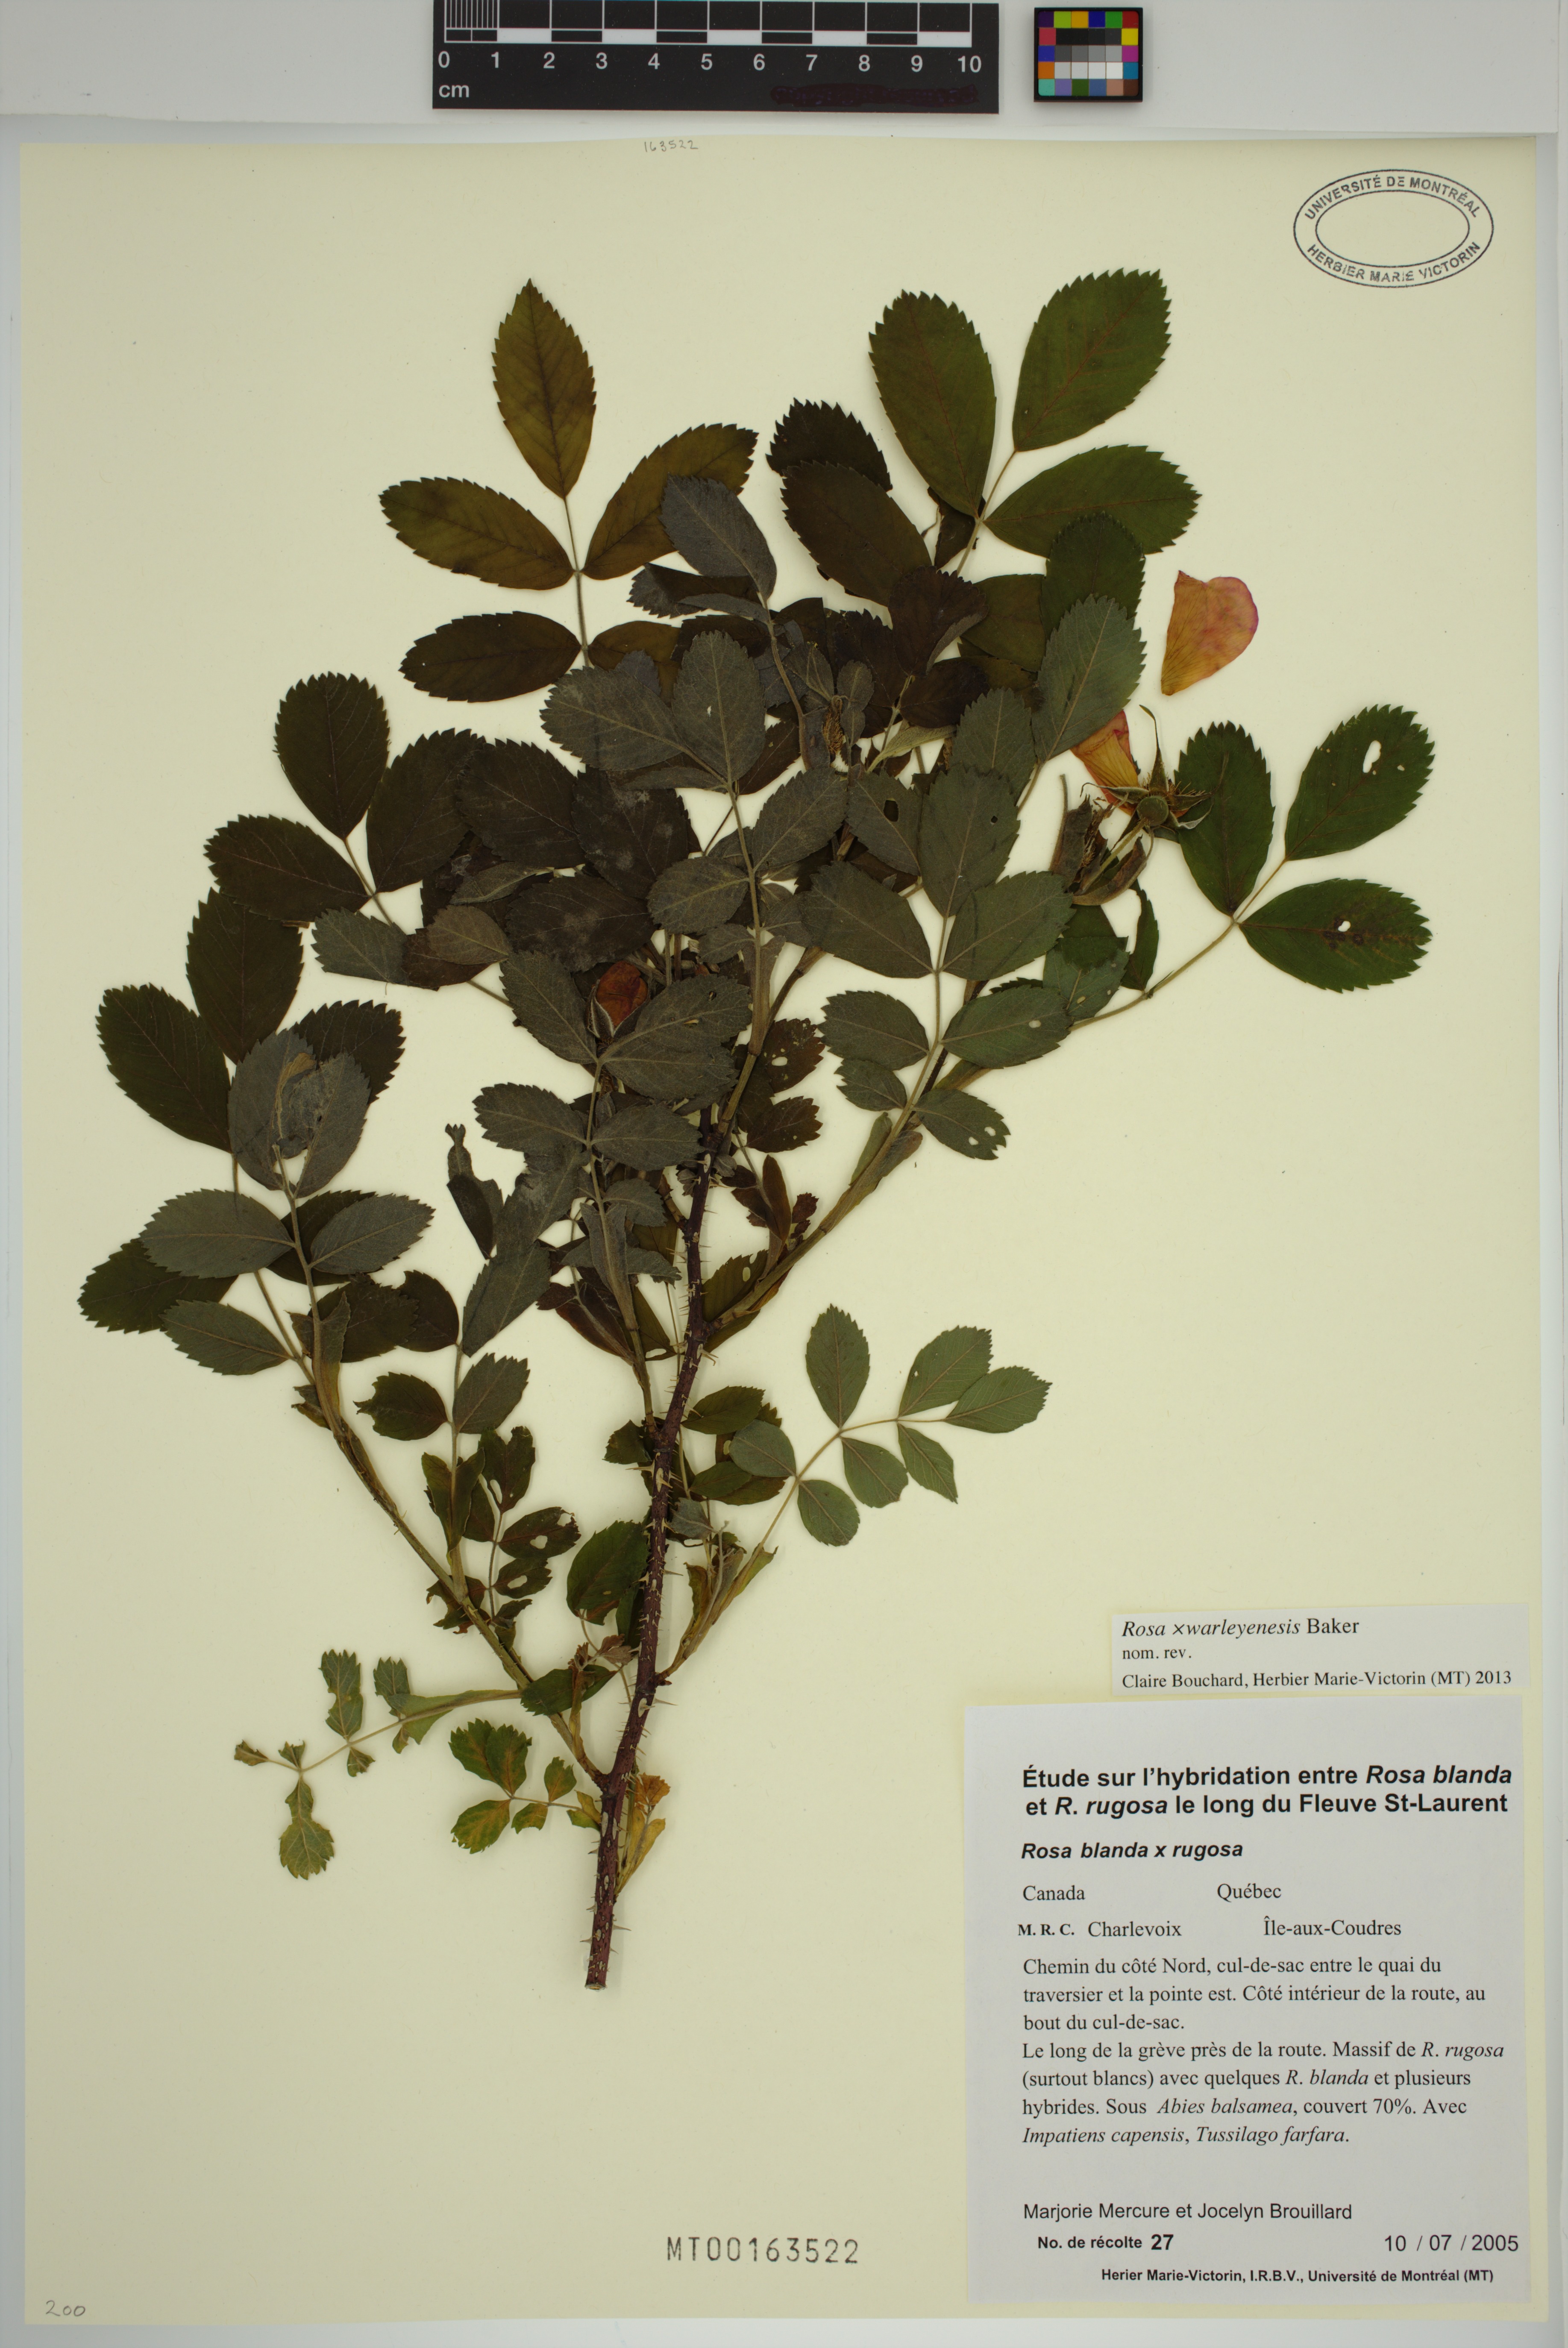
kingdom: Plantae
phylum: Tracheophyta
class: Magnoliopsida
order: Rosales
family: Rosaceae
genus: Rosa
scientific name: Rosa warleyensis
